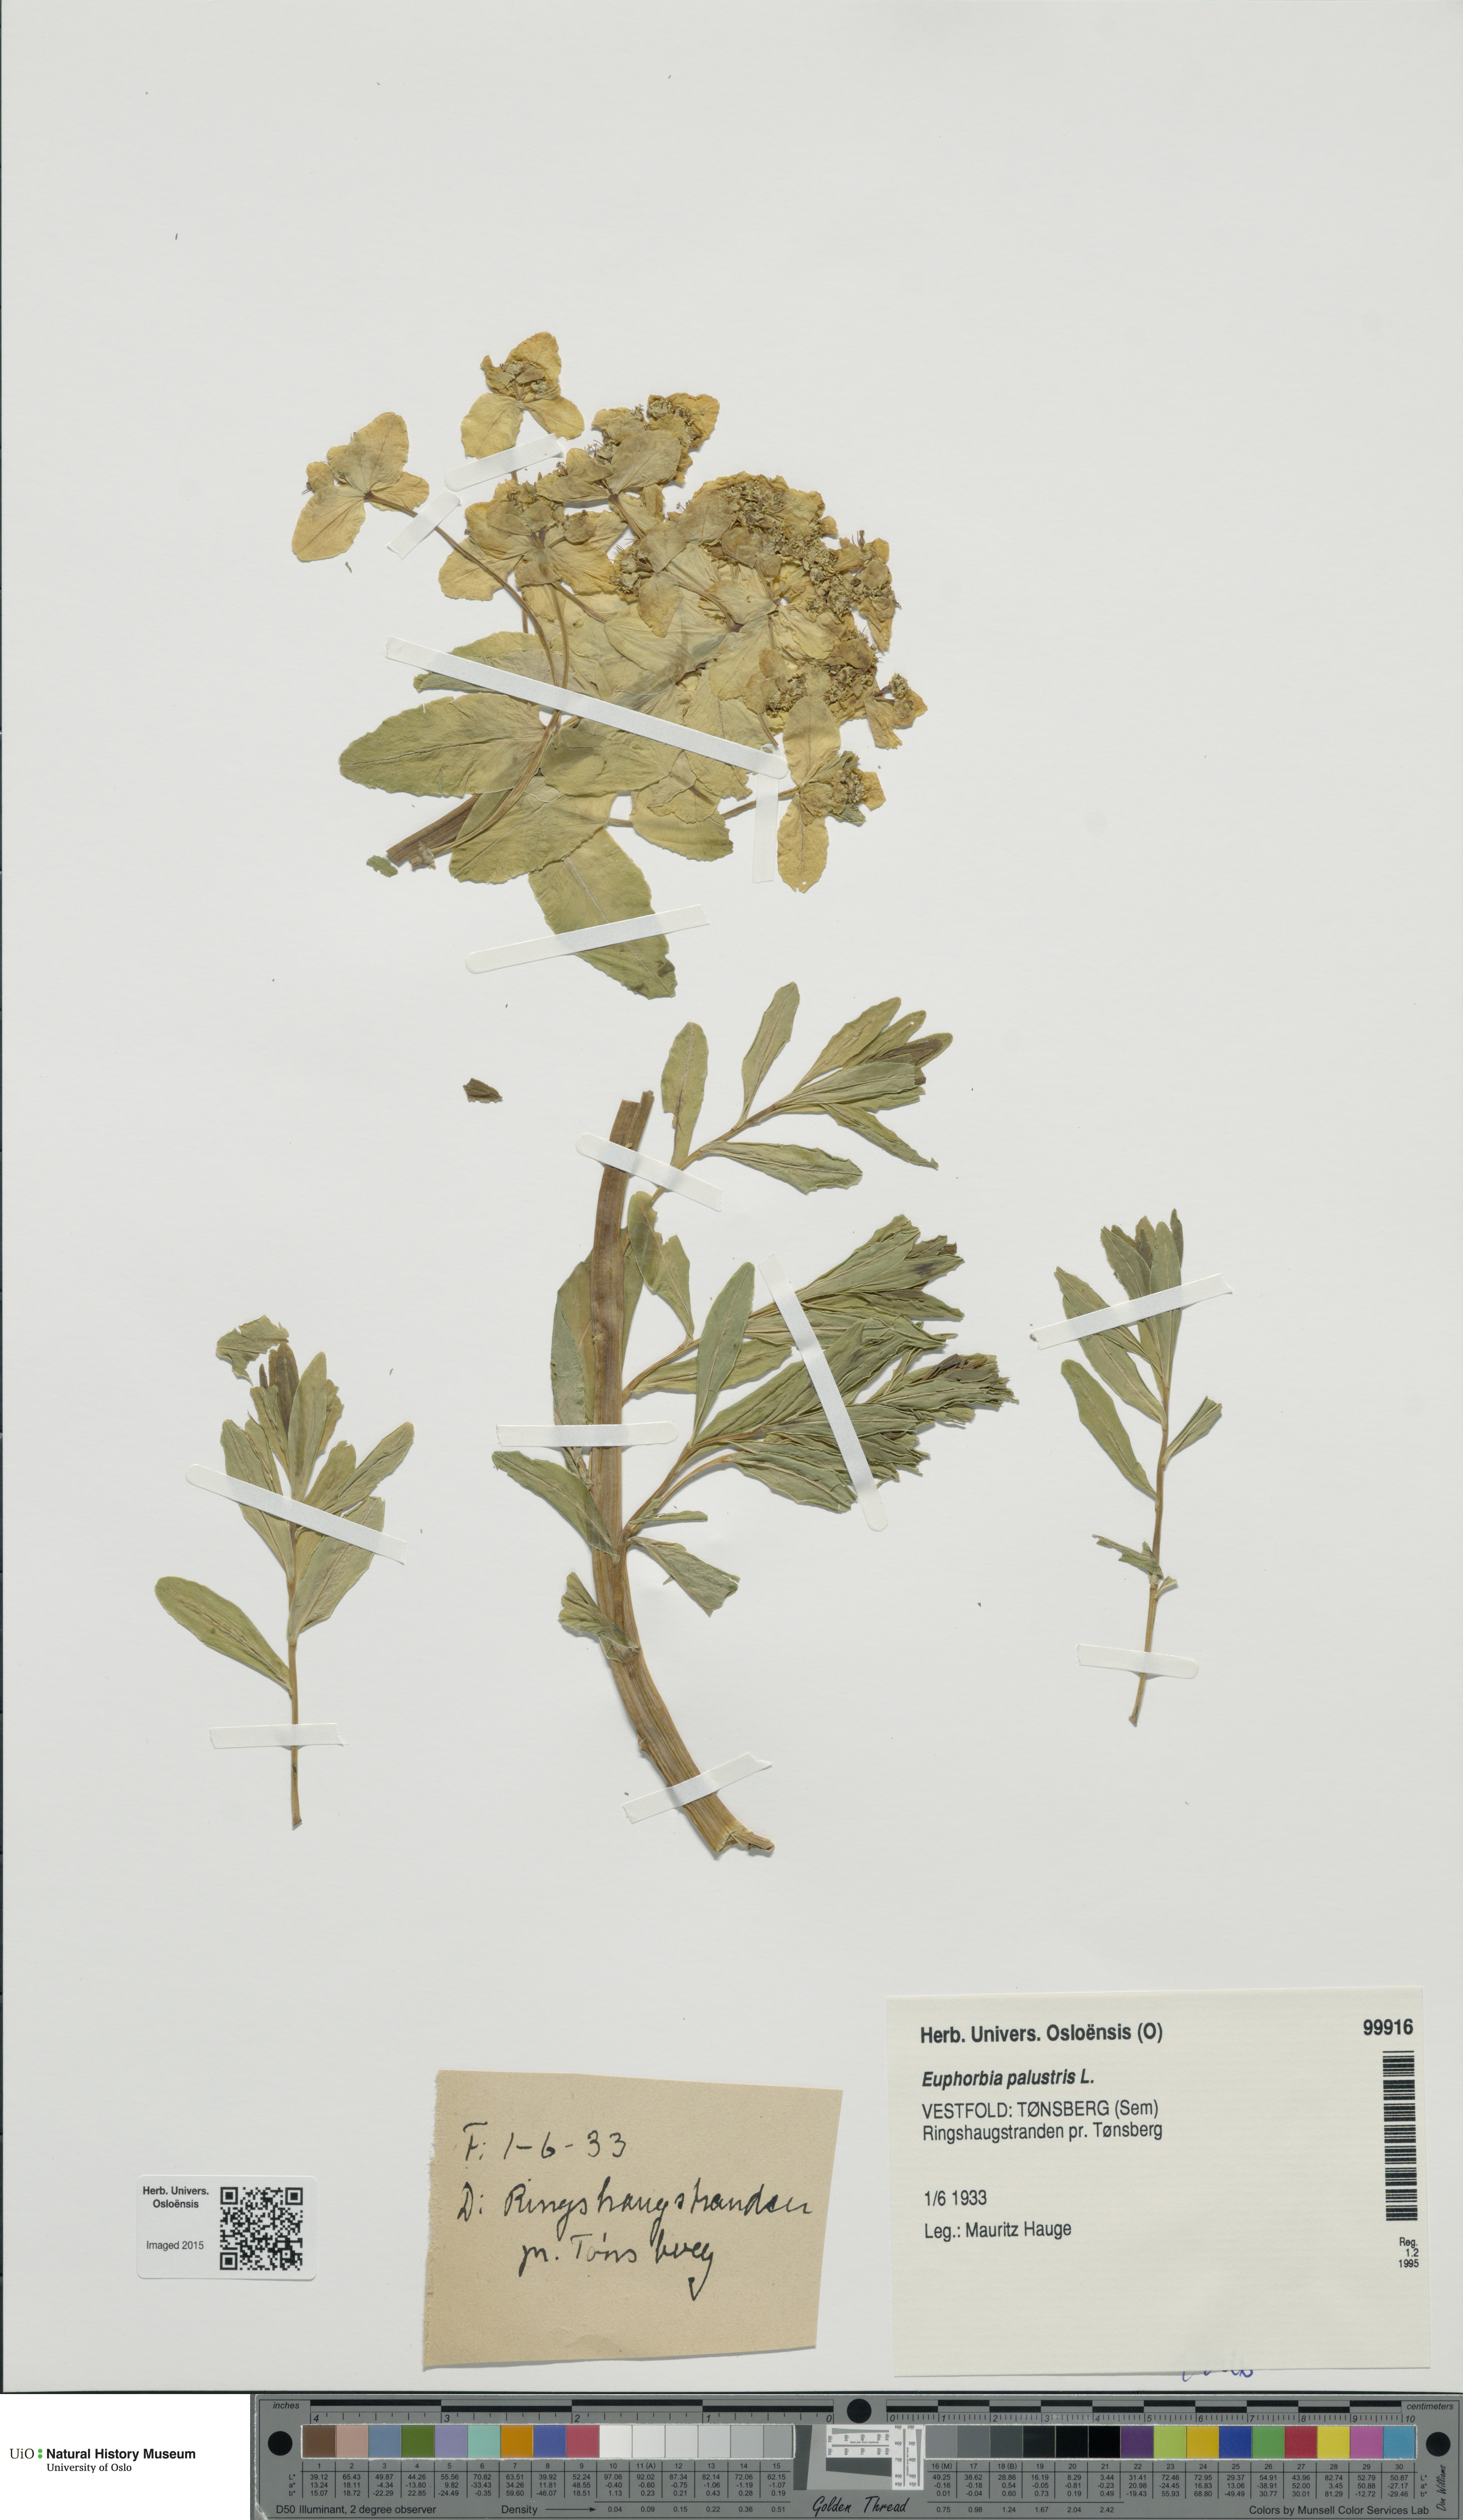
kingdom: Plantae
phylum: Tracheophyta
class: Magnoliopsida
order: Malpighiales
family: Euphorbiaceae
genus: Euphorbia
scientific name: Euphorbia palustris
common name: Marsh spurge
